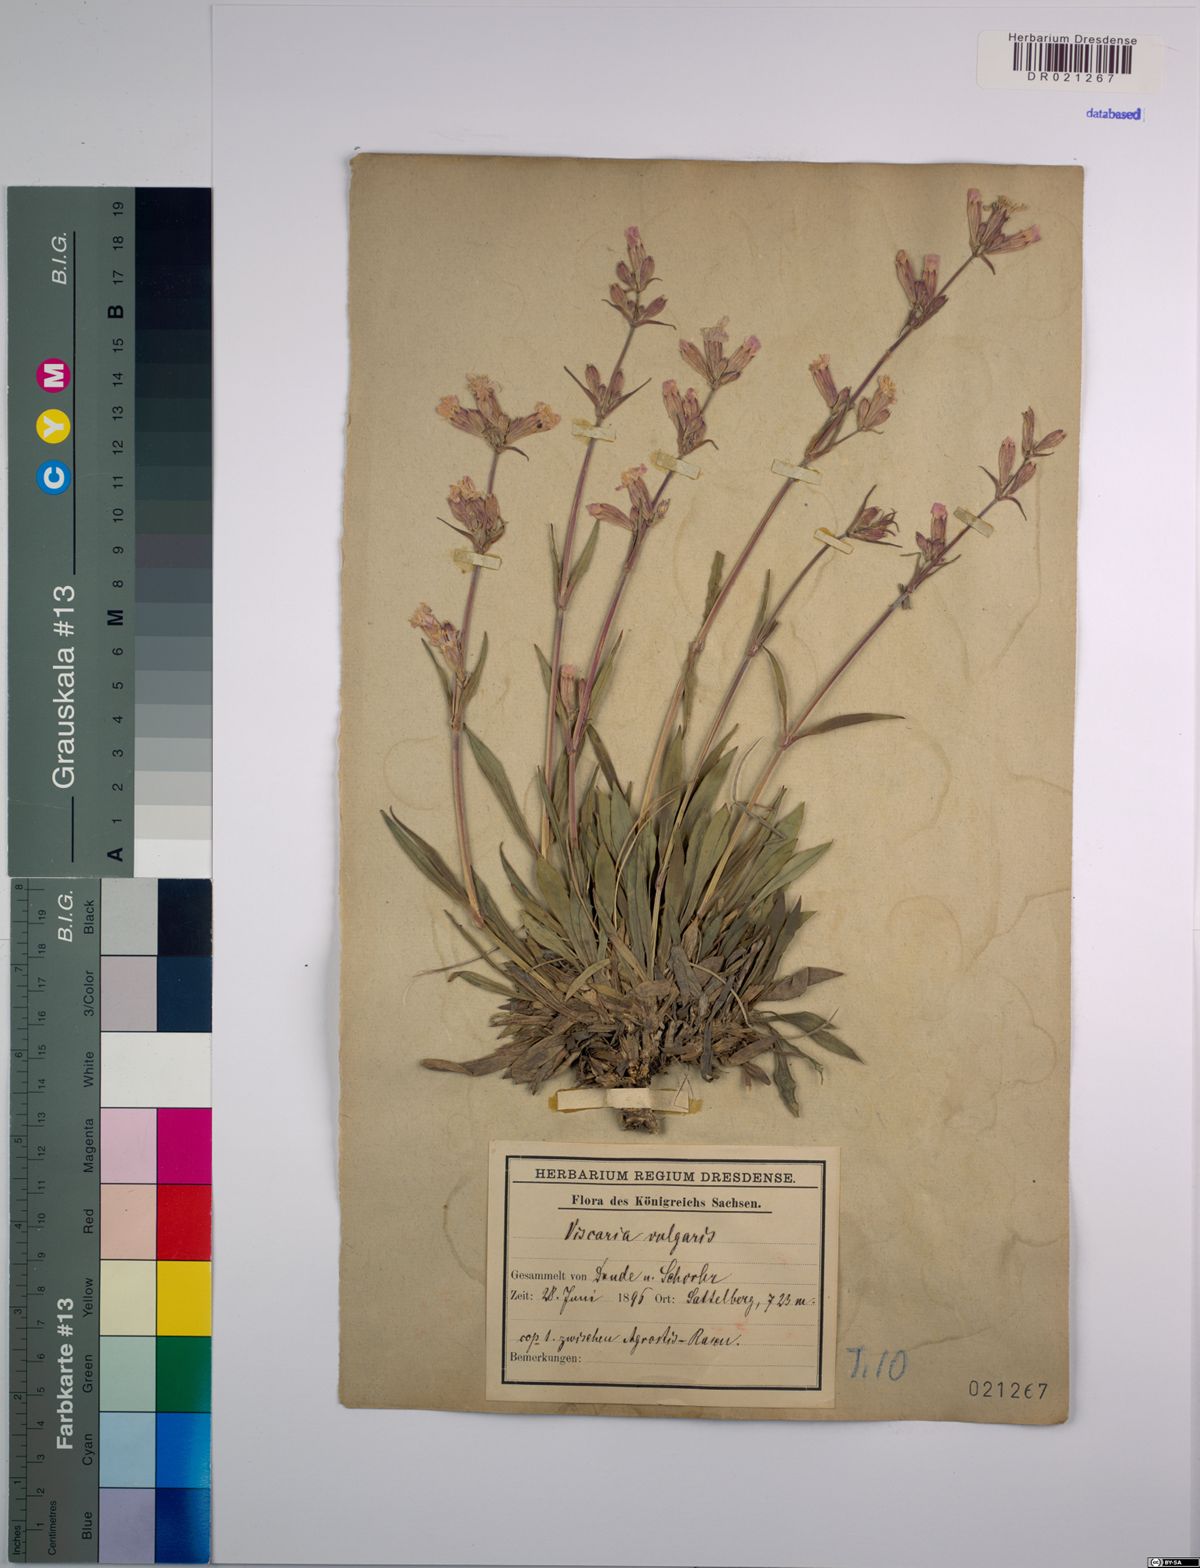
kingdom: Plantae
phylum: Tracheophyta
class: Magnoliopsida
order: Caryophyllales
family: Caryophyllaceae
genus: Viscaria
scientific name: Viscaria vulgaris
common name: Clammy campion
